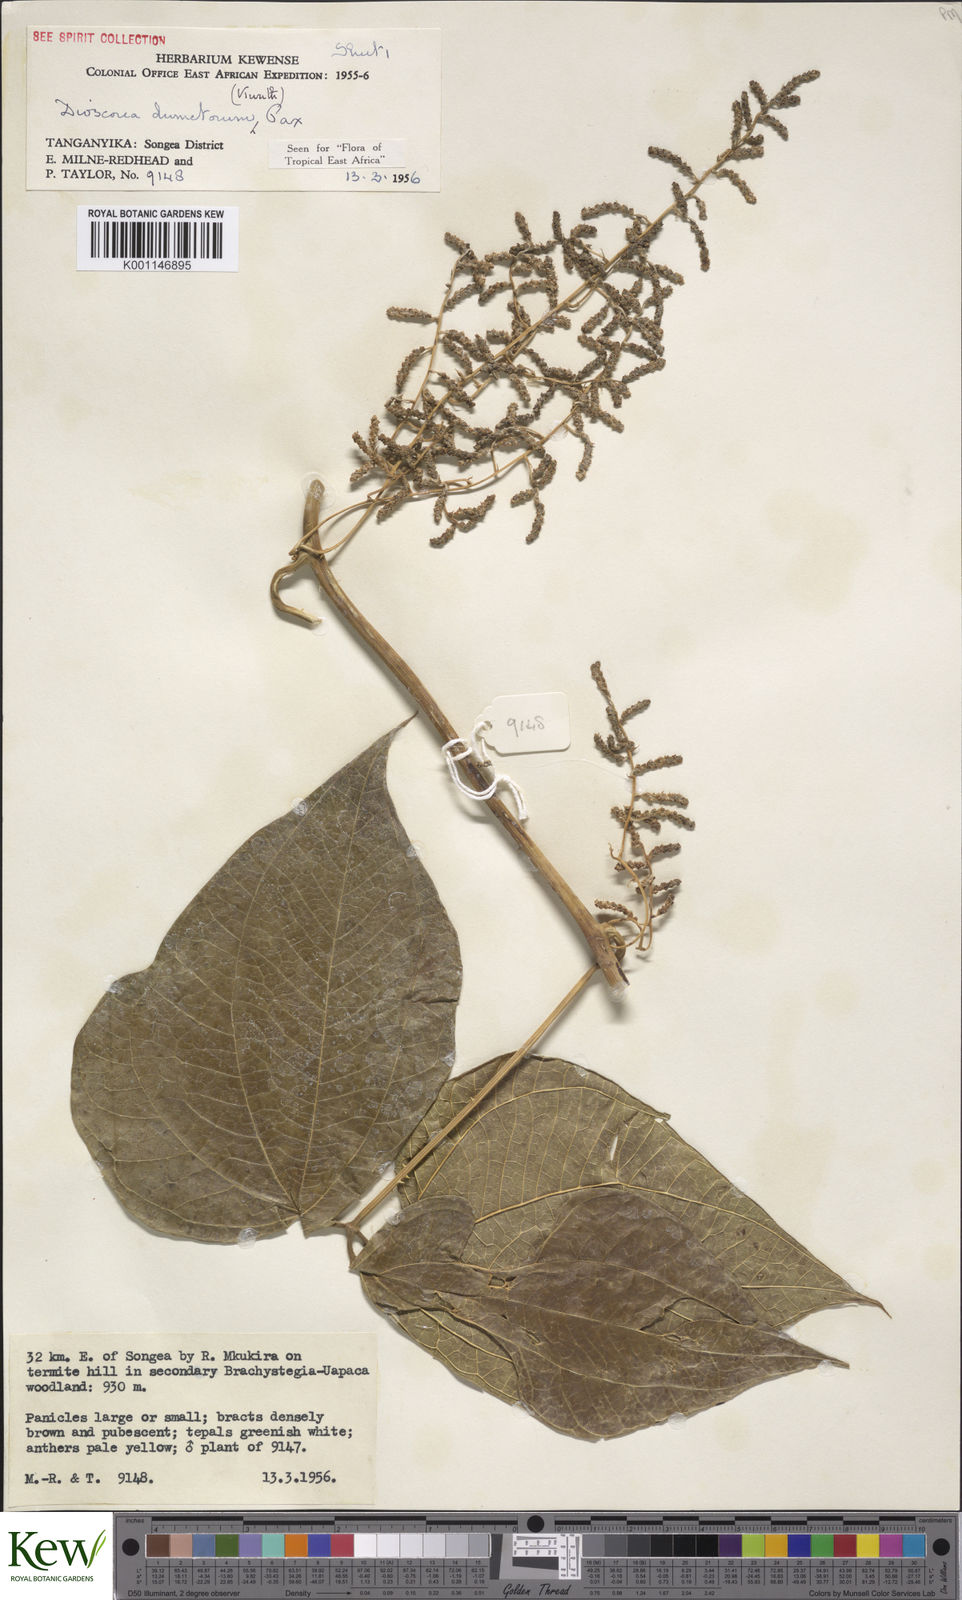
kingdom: Plantae
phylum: Tracheophyta
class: Liliopsida
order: Dioscoreales
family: Dioscoreaceae
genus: Dioscorea
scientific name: Dioscorea dumetorum
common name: African bitter yam
